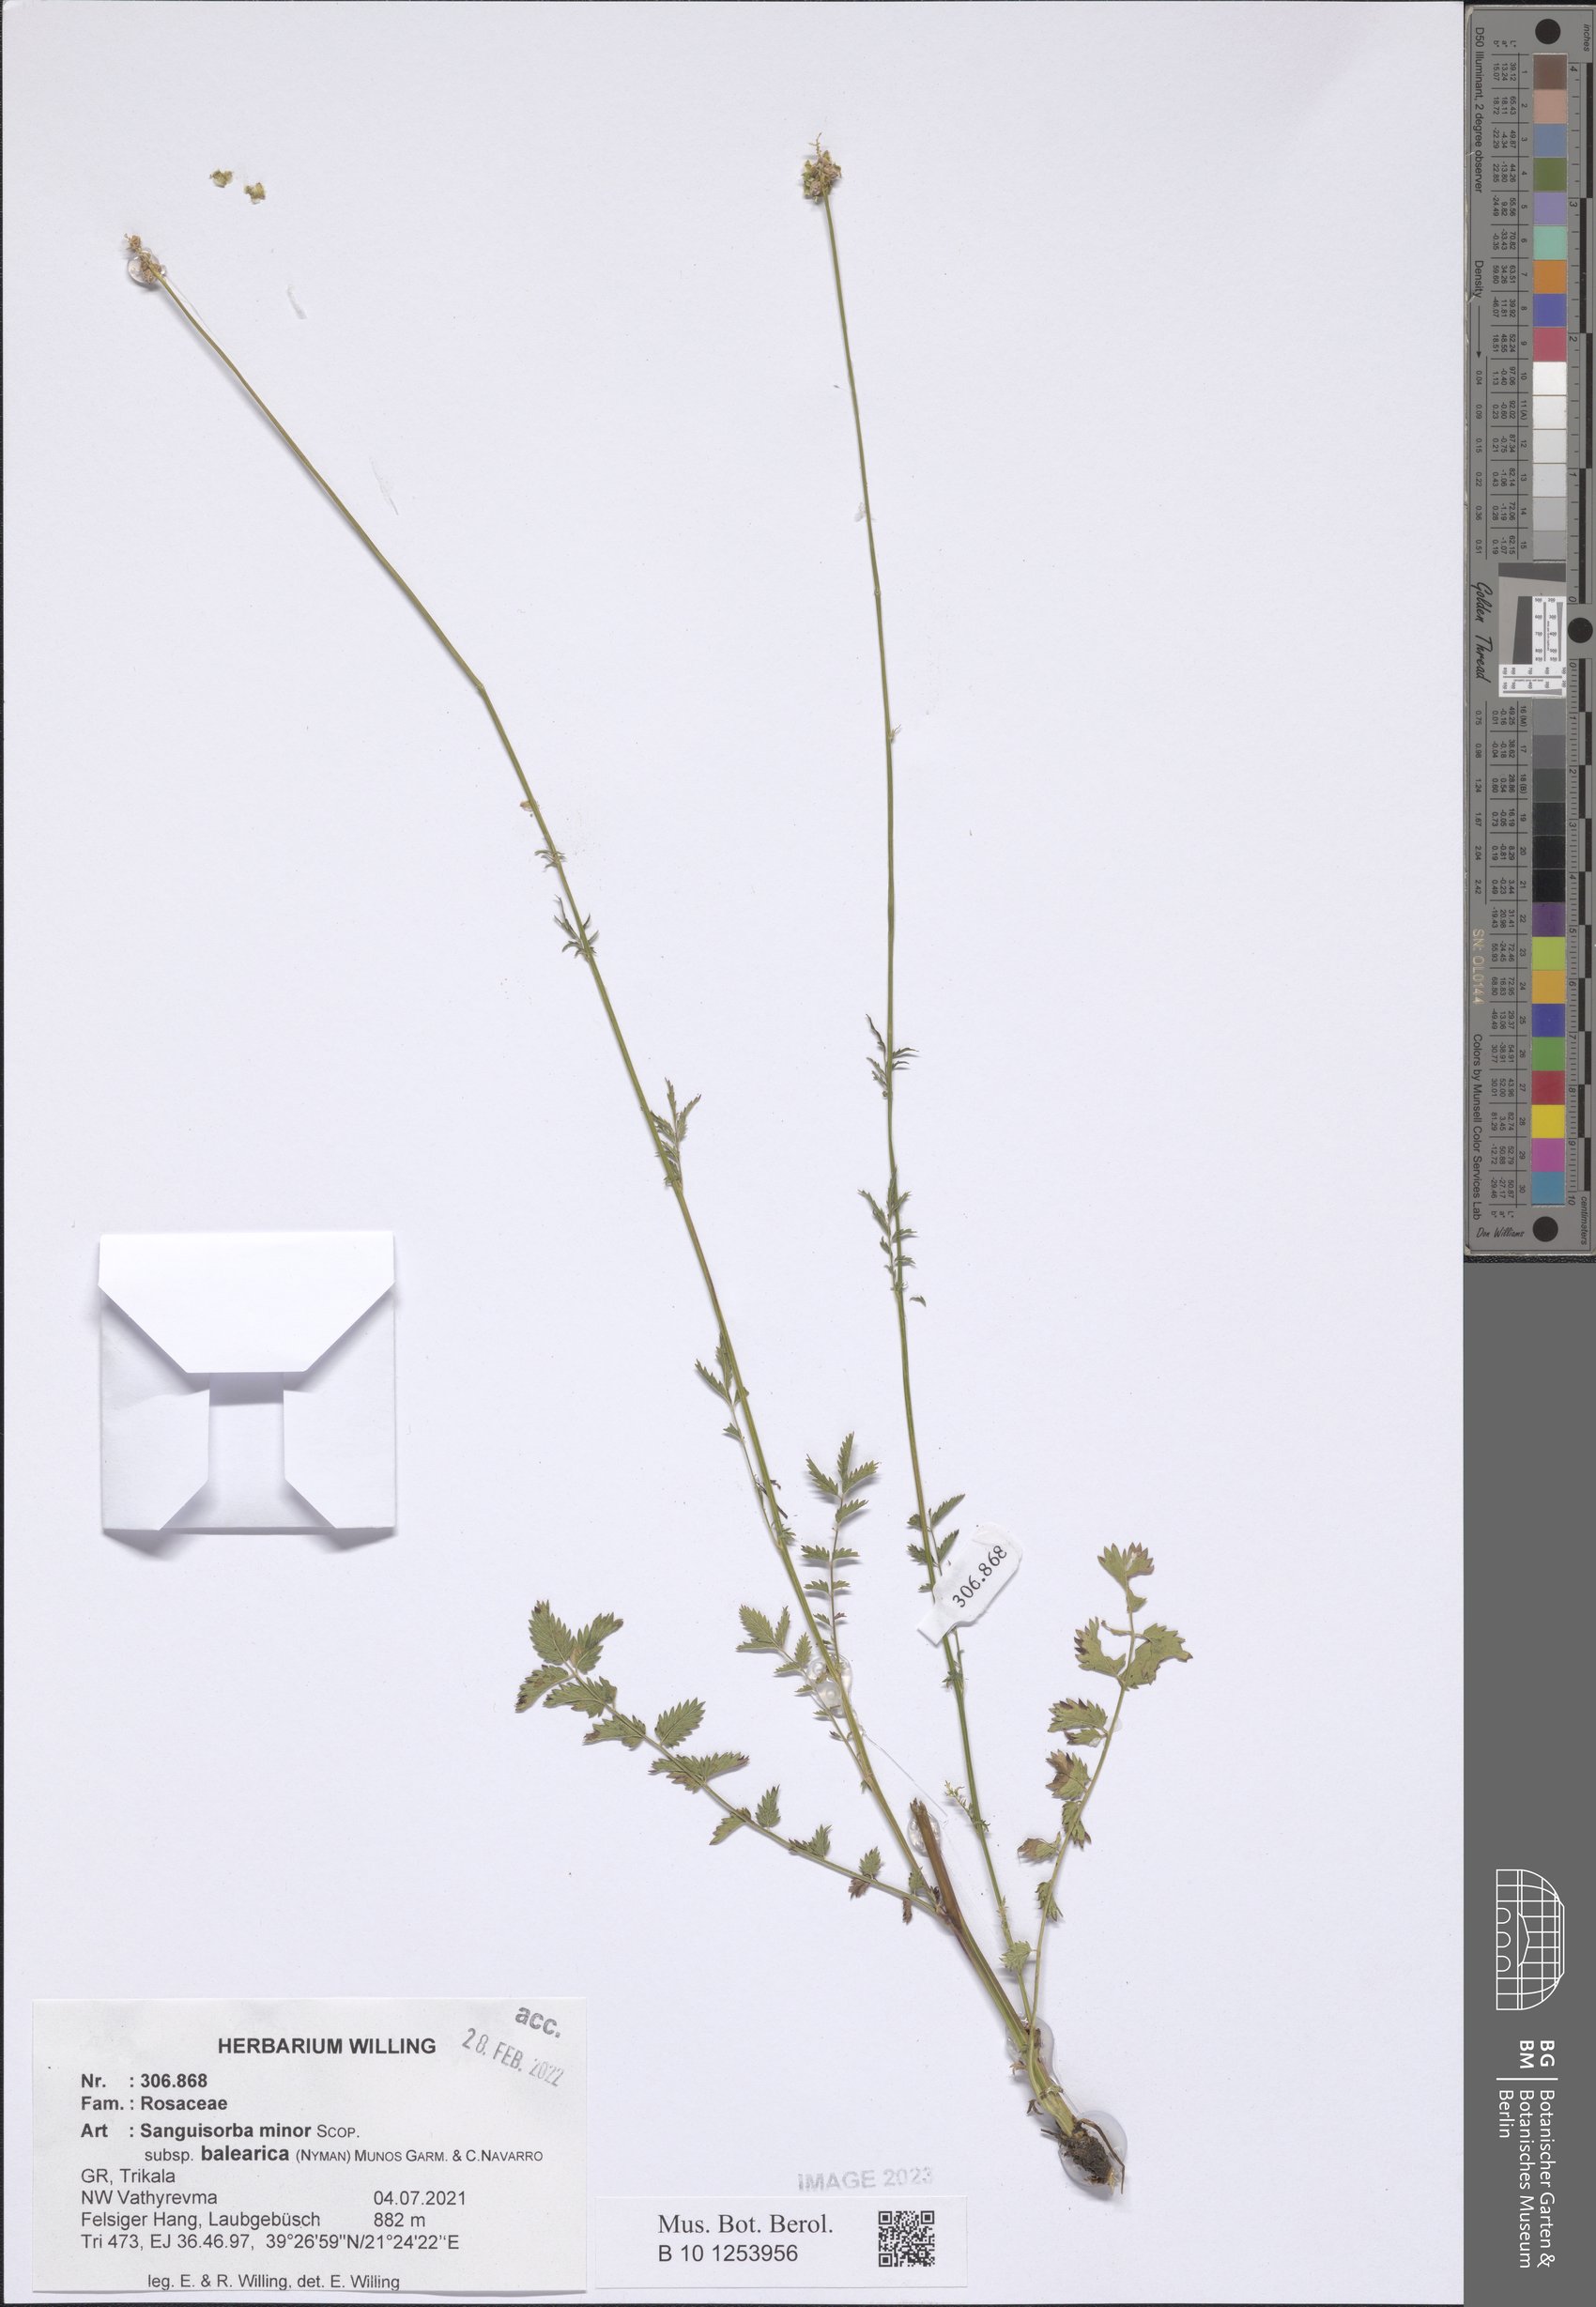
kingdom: Plantae
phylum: Tracheophyta
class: Magnoliopsida
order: Rosales
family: Rosaceae
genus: Poterium
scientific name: Poterium sanguisorba
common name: Salad burnet
